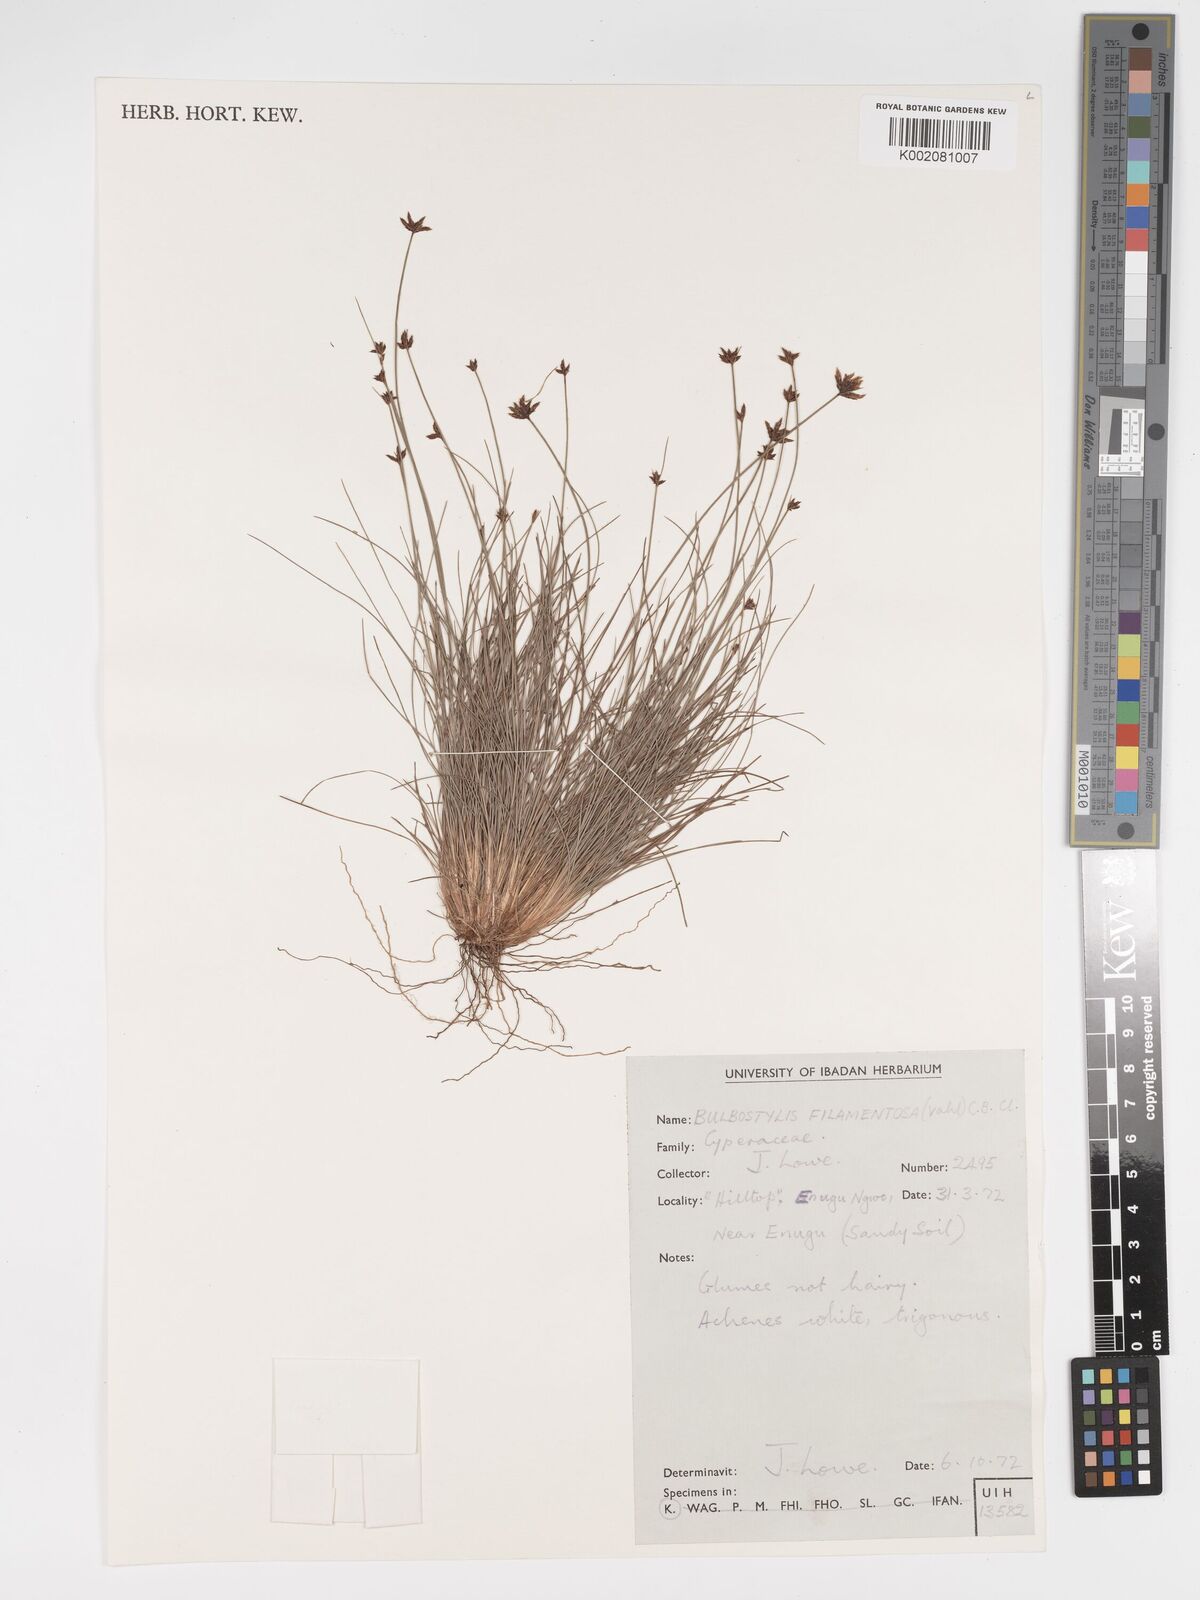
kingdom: Plantae
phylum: Tracheophyta
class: Liliopsida
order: Poales
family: Cyperaceae
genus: Bulbostylis
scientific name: Bulbostylis filamentosa
